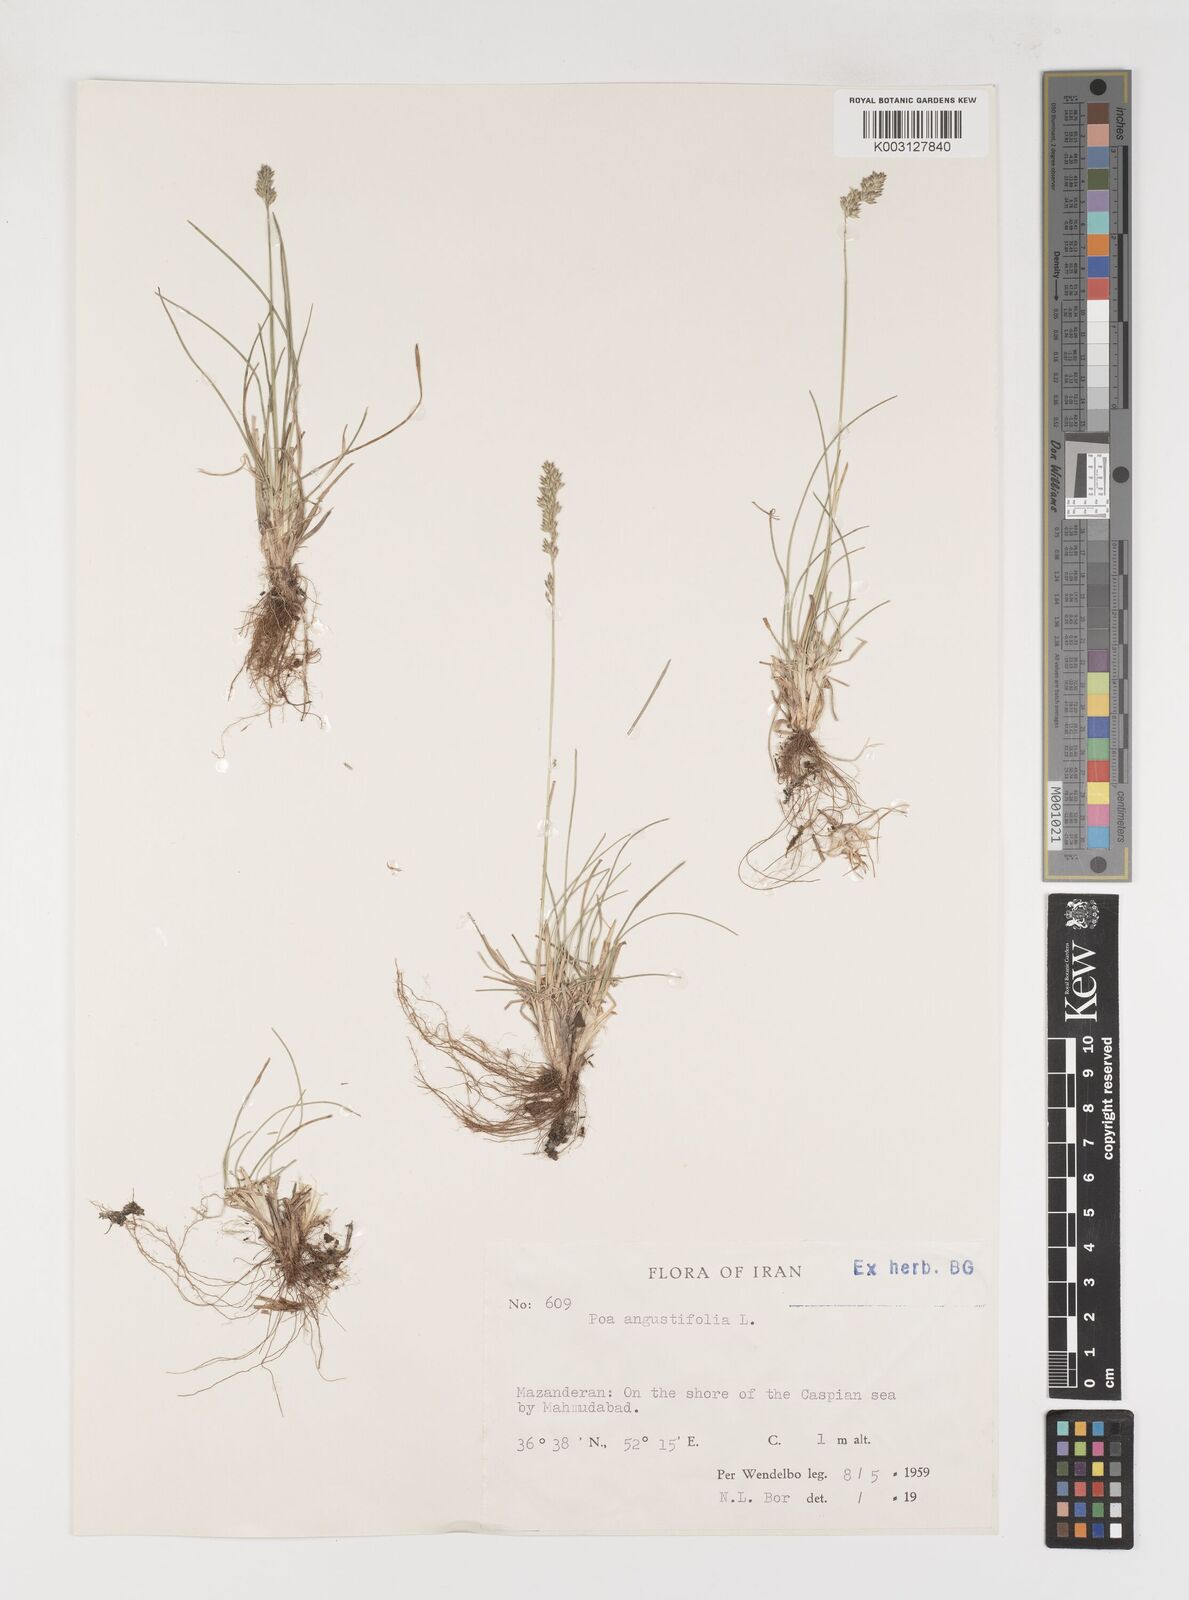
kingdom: Plantae
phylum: Tracheophyta
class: Liliopsida
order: Poales
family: Poaceae
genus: Poa
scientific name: Poa angustifolia
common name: Narrow-leaved meadow-grass
